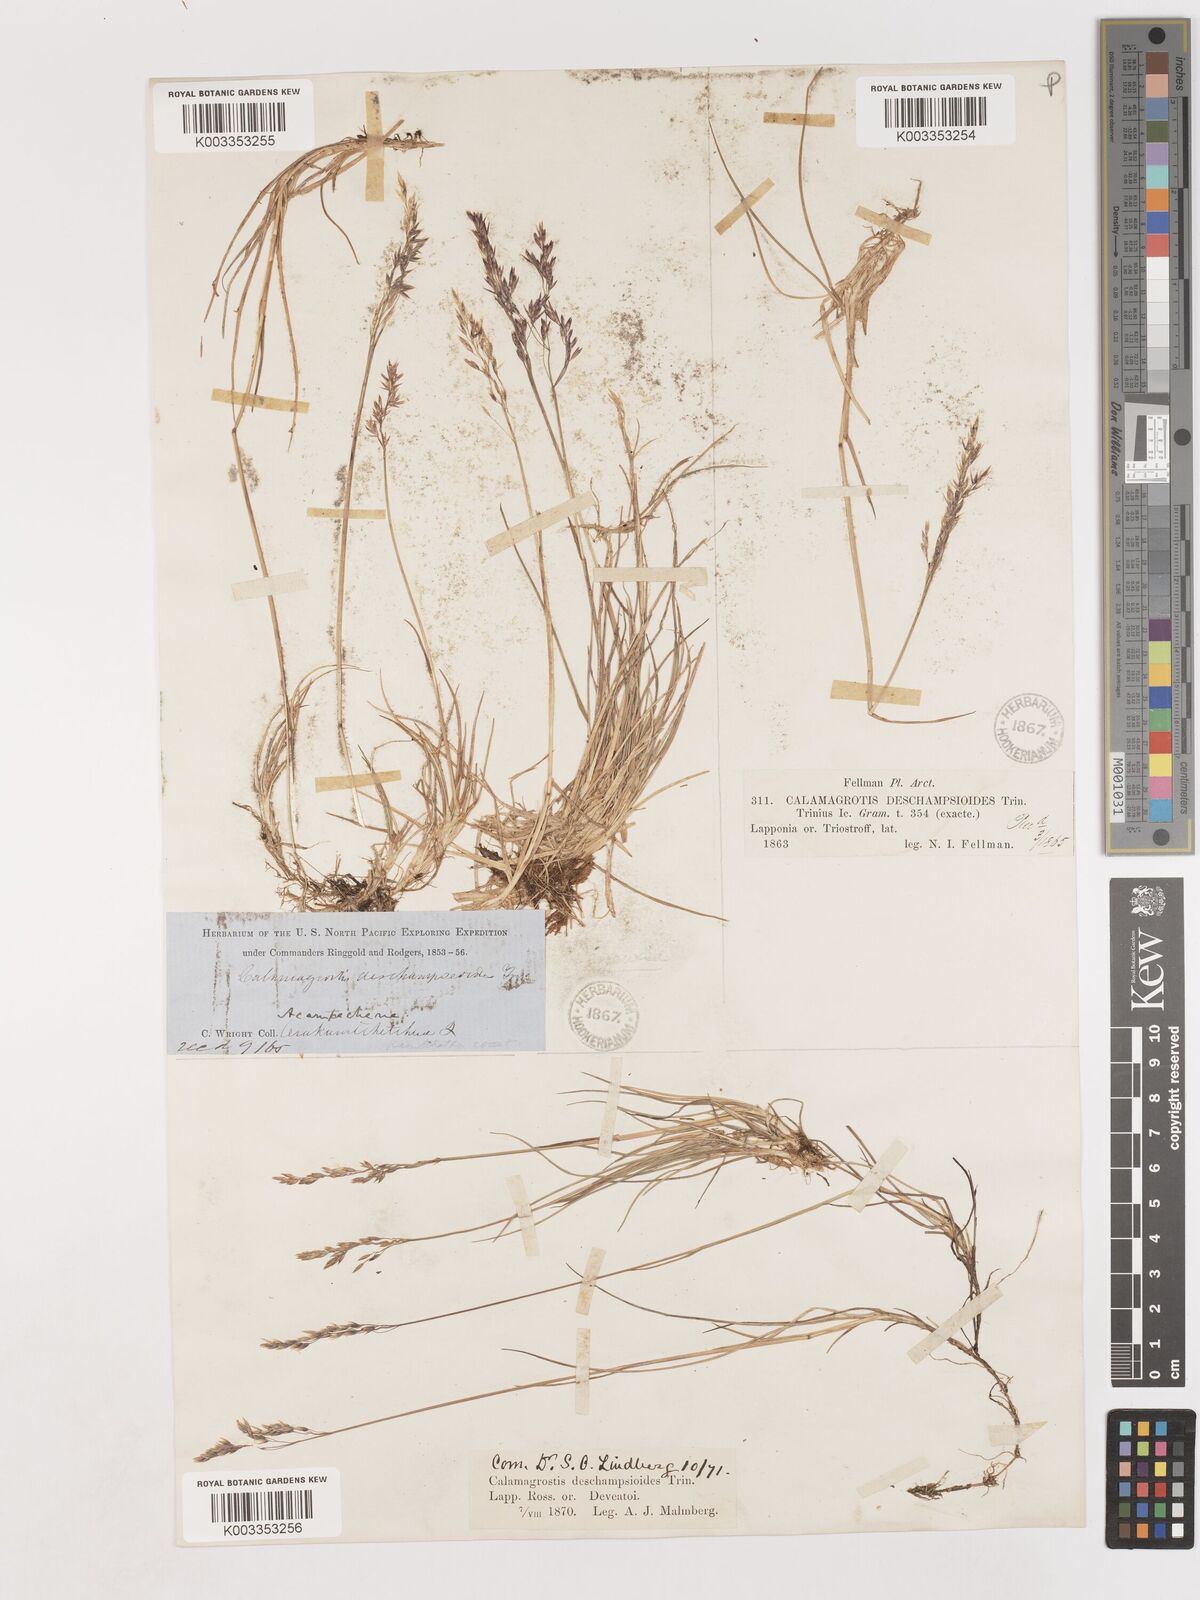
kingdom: Plantae
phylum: Tracheophyta
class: Liliopsida
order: Poales
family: Poaceae
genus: Calamagrostis
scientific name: Calamagrostis deschampsioides
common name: Circumpolar reedgrass
